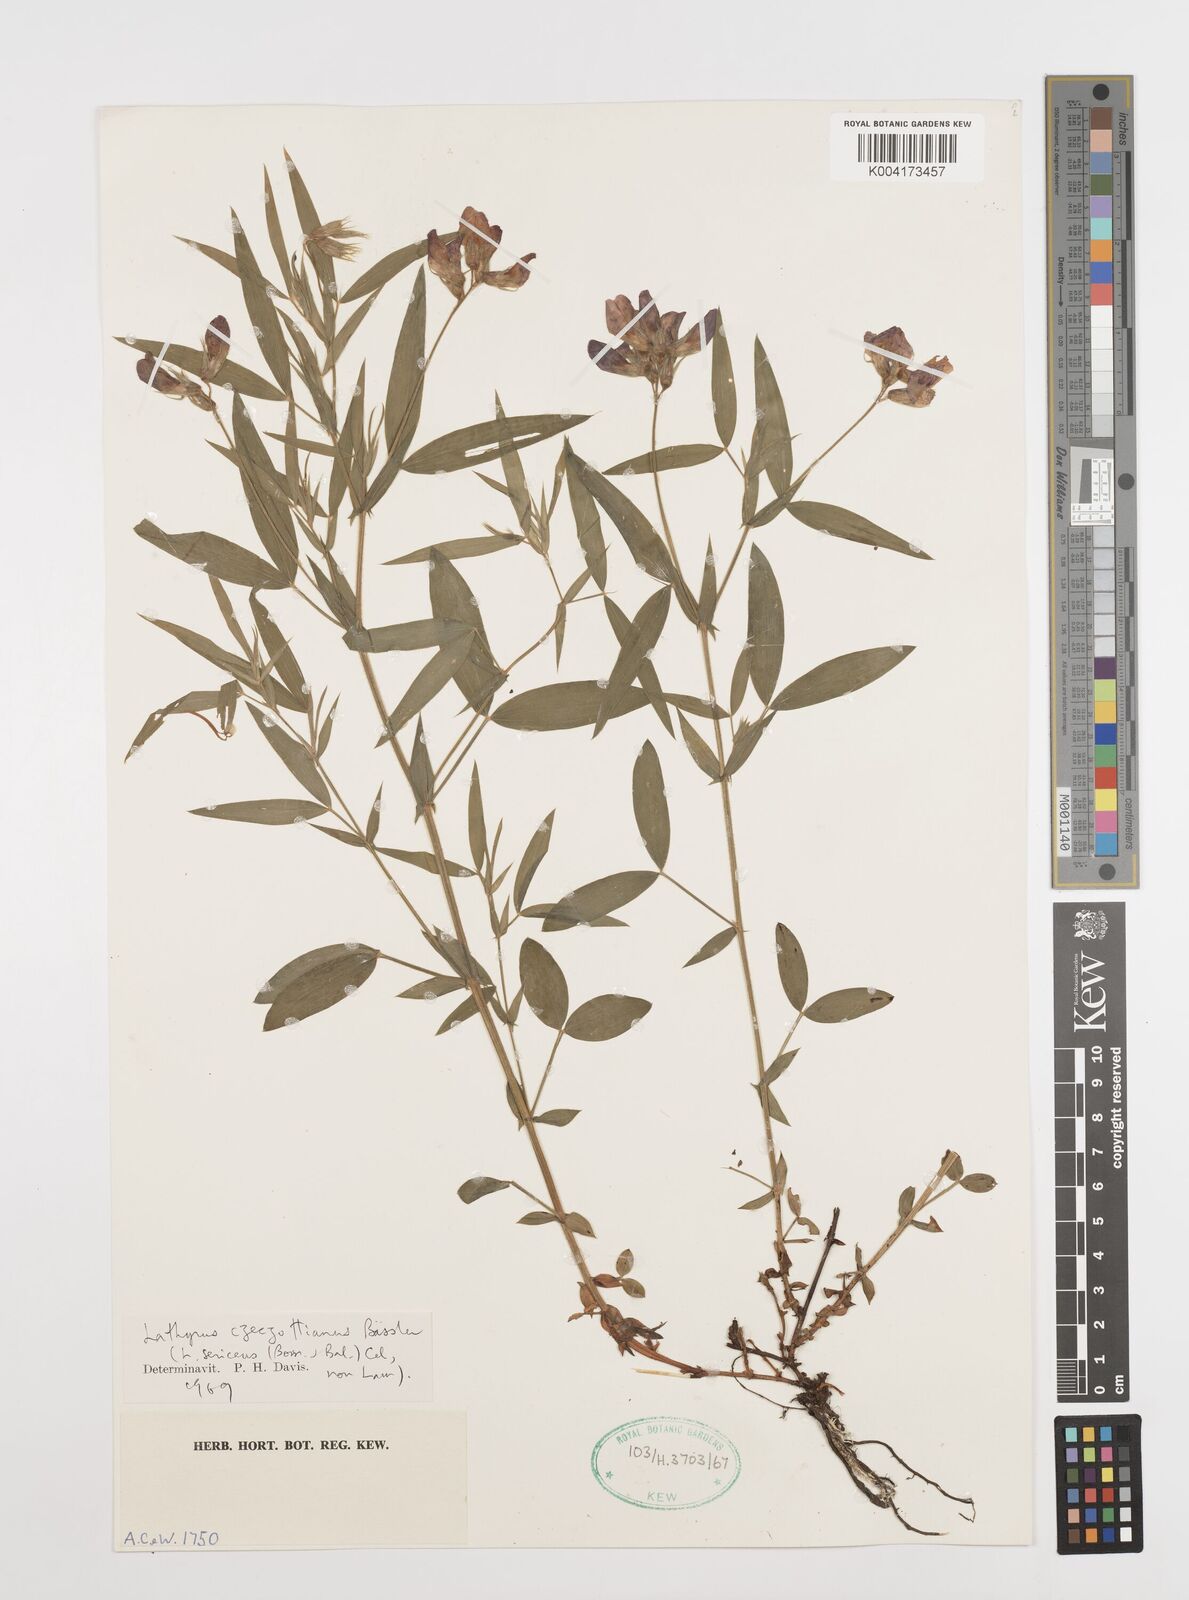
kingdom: Plantae
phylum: Tracheophyta
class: Magnoliopsida
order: Fabales
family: Fabaceae
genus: Lathyrus
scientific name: Lathyrus czeczottianus
